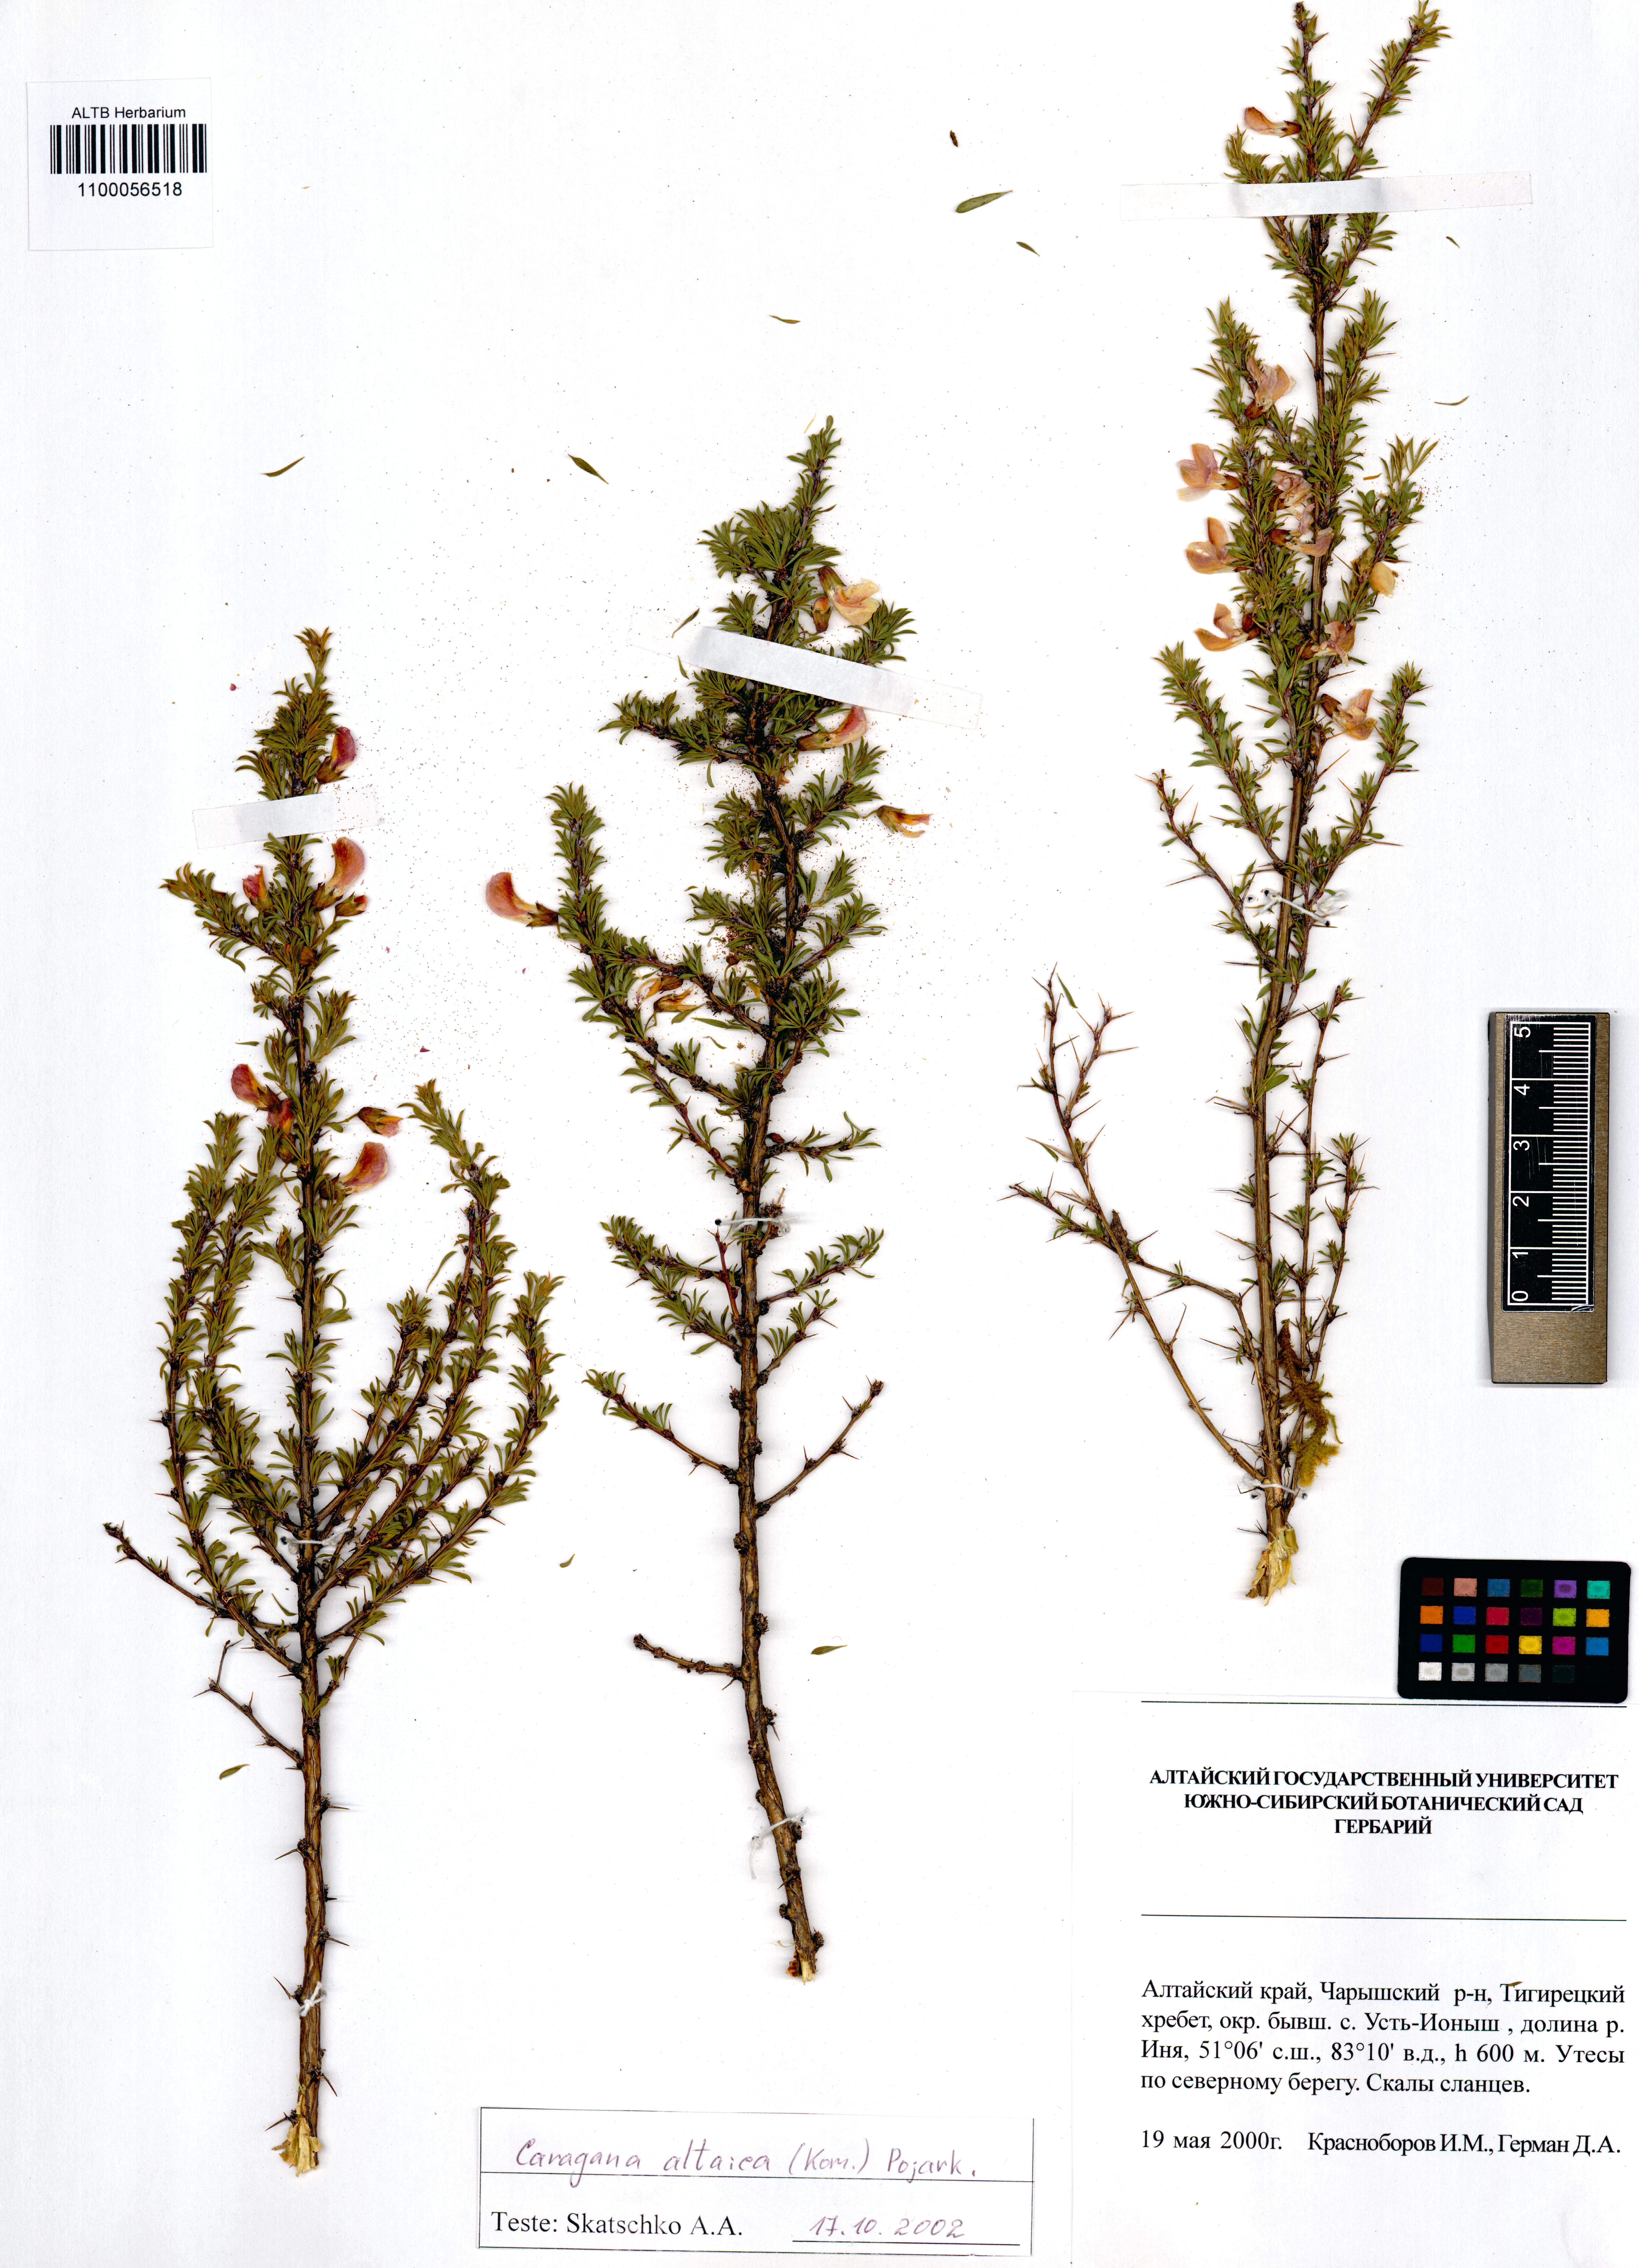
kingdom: Plantae
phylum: Tracheophyta
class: Magnoliopsida
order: Fabales
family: Fabaceae
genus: Caragana
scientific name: Caragana pygmaea
